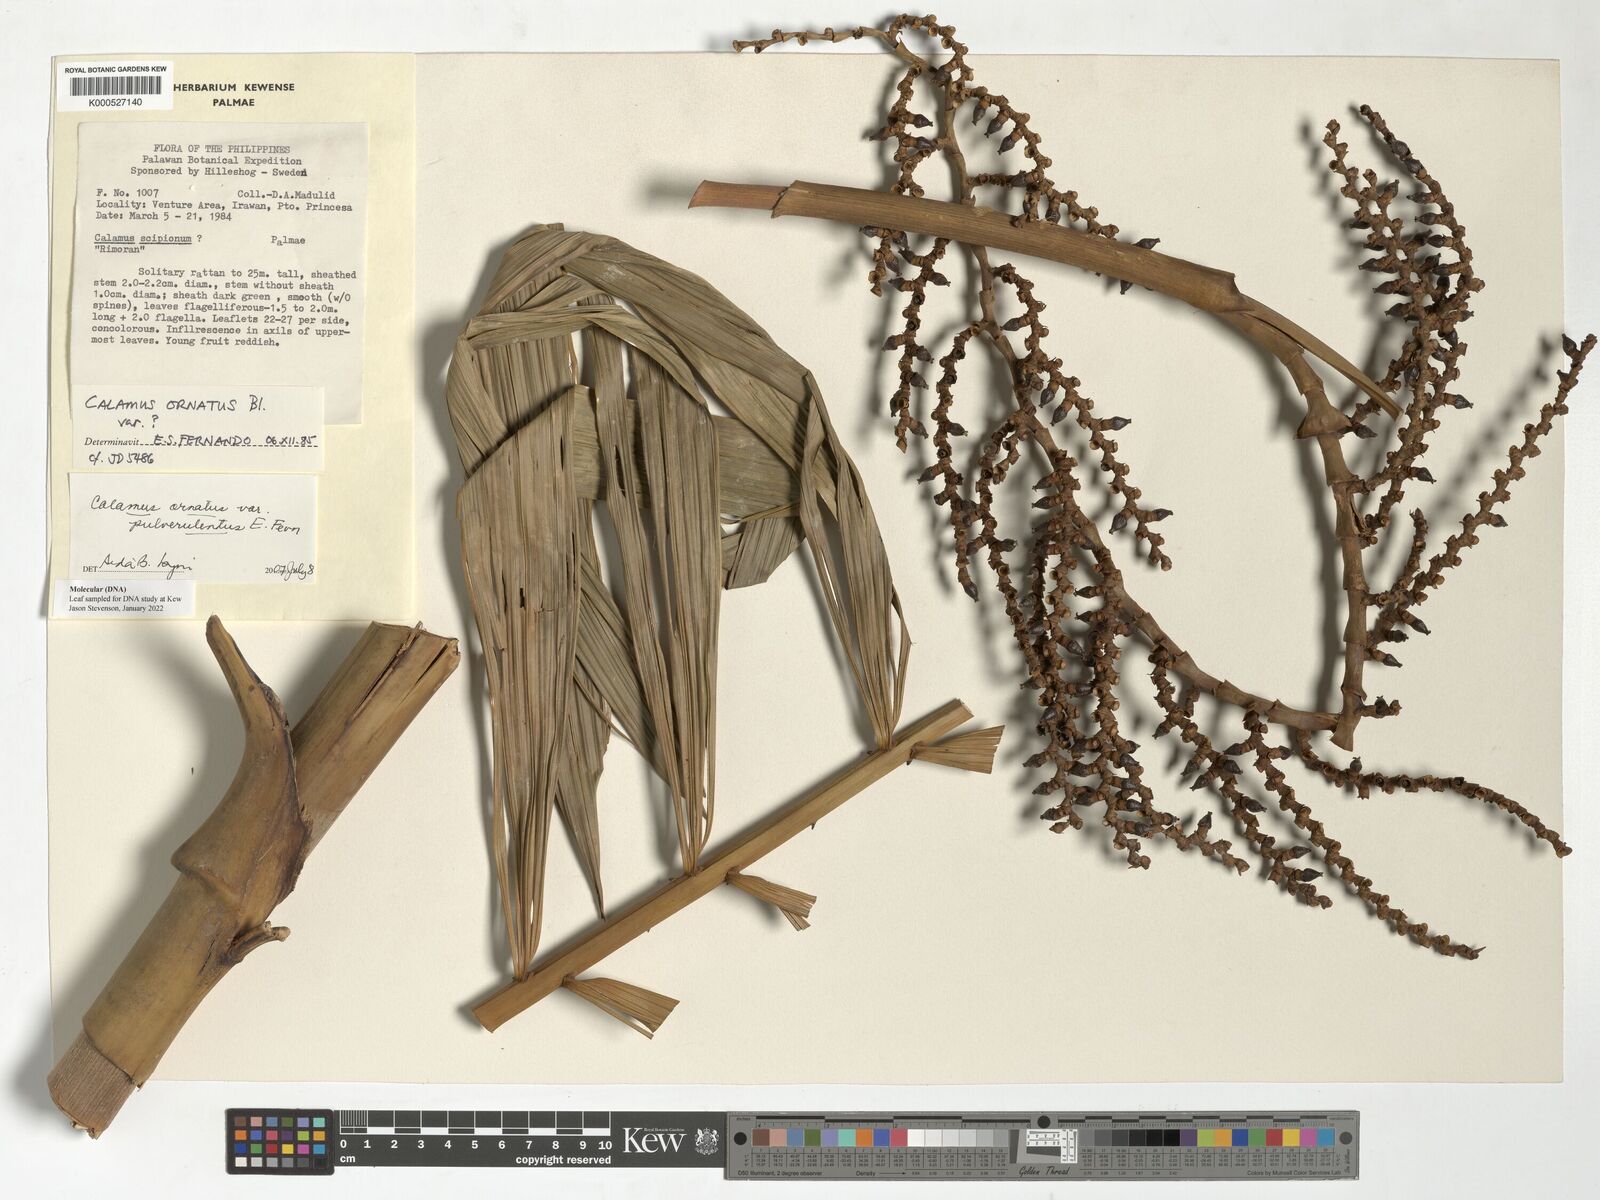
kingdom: Plantae
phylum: Tracheophyta
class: Liliopsida
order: Arecales
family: Arecaceae
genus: Calamus
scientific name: Calamus ornatus
